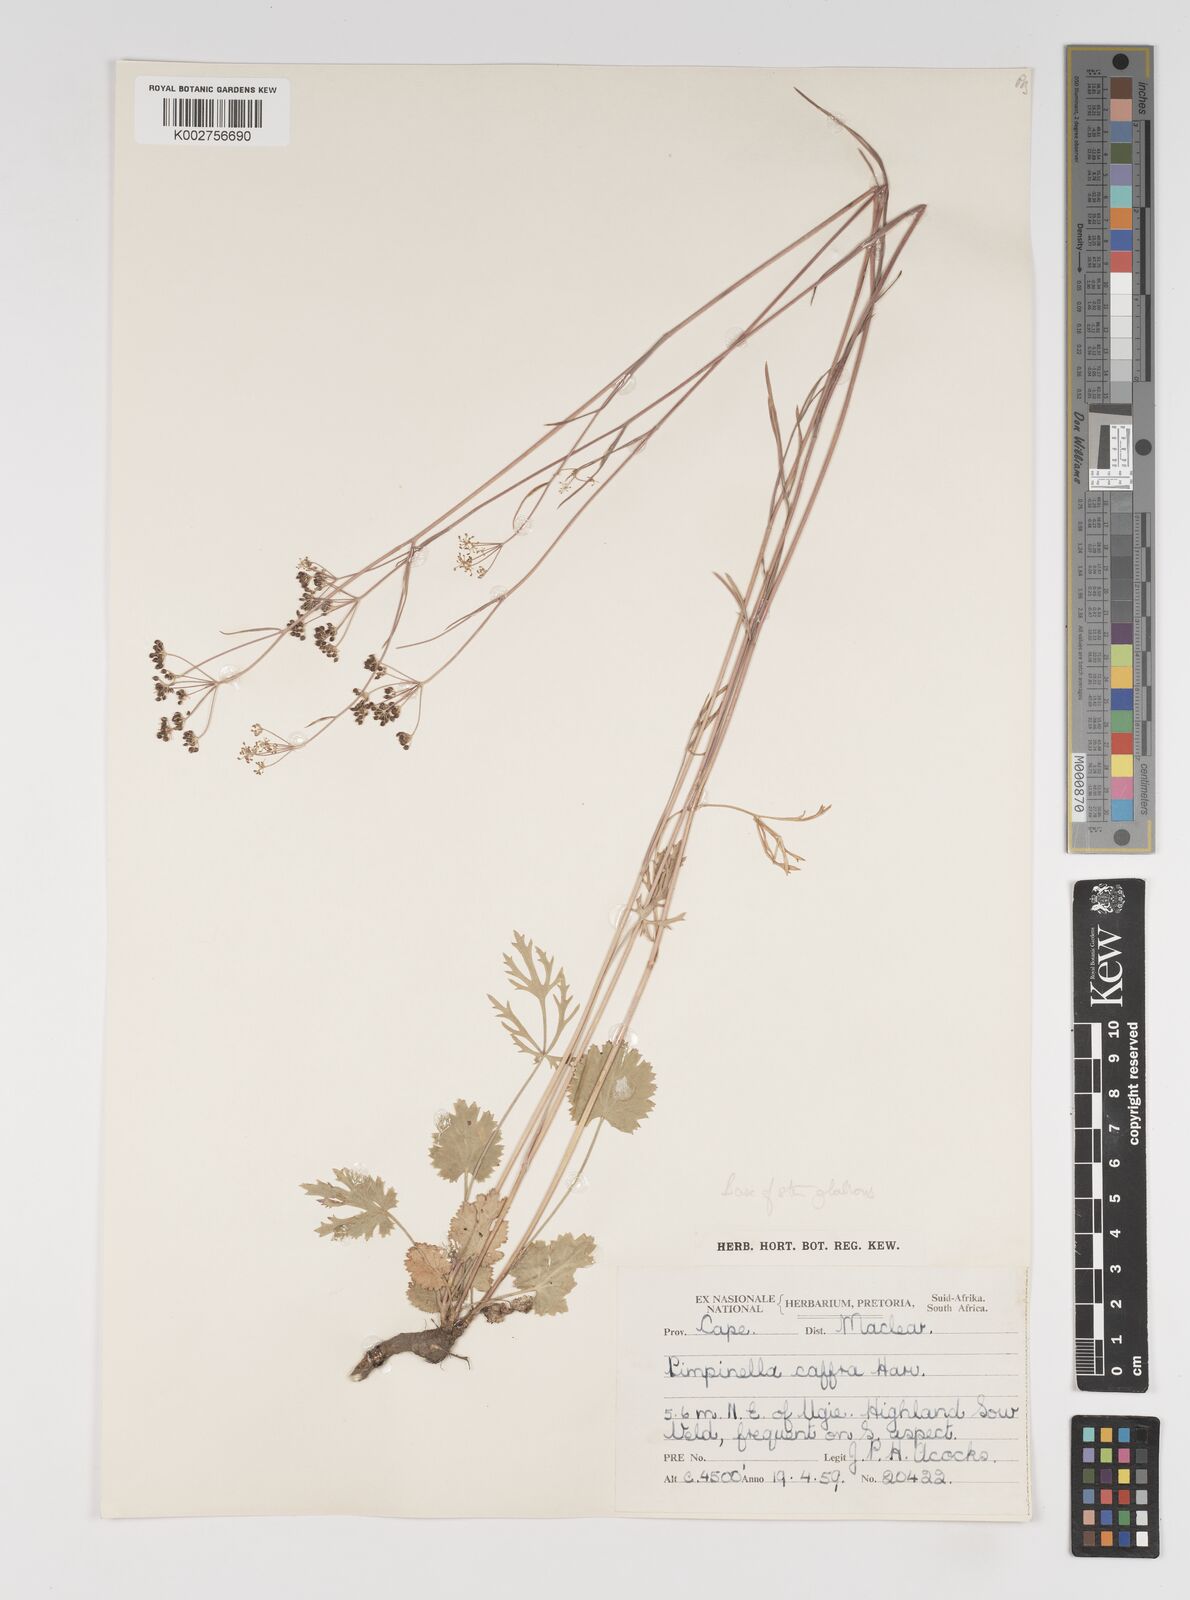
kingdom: Plantae
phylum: Tracheophyta
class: Magnoliopsida
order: Apiales
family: Apiaceae
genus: Pimpinella
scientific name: Pimpinella
